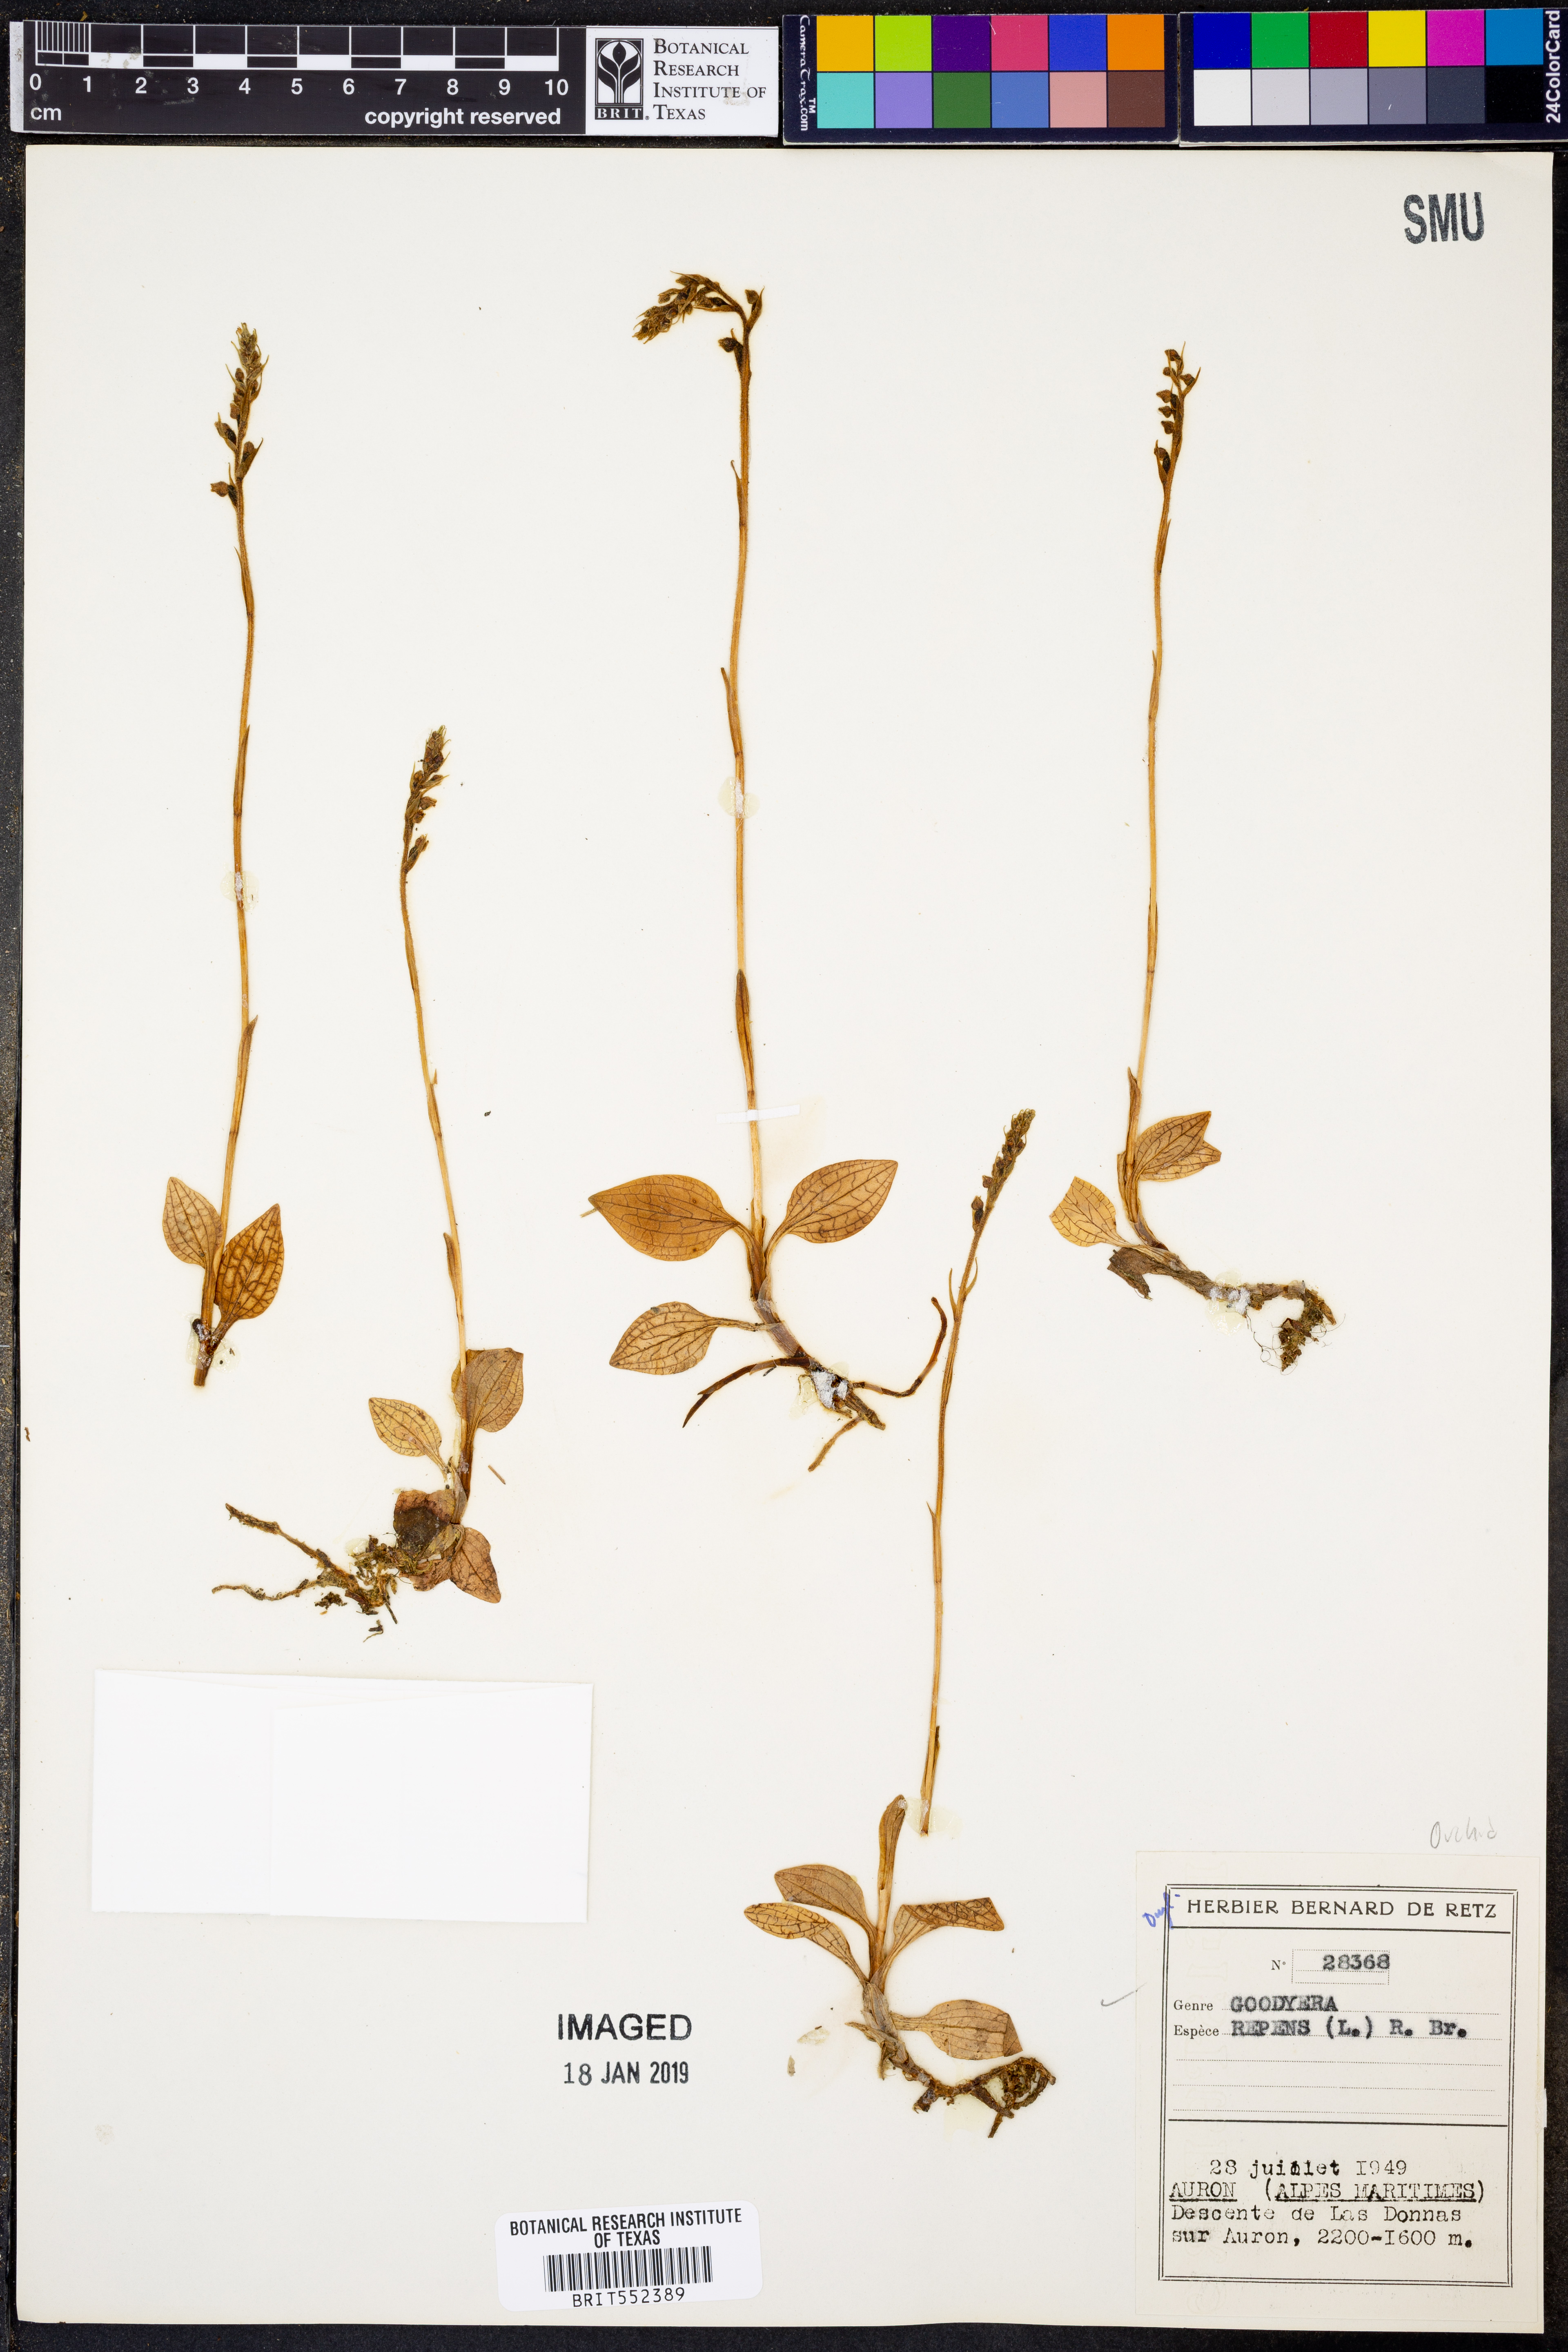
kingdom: Plantae
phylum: Tracheophyta
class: Liliopsida
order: Asparagales
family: Orchidaceae
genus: Goodyera
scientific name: Goodyera repens
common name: Creeping lady's-tresses
